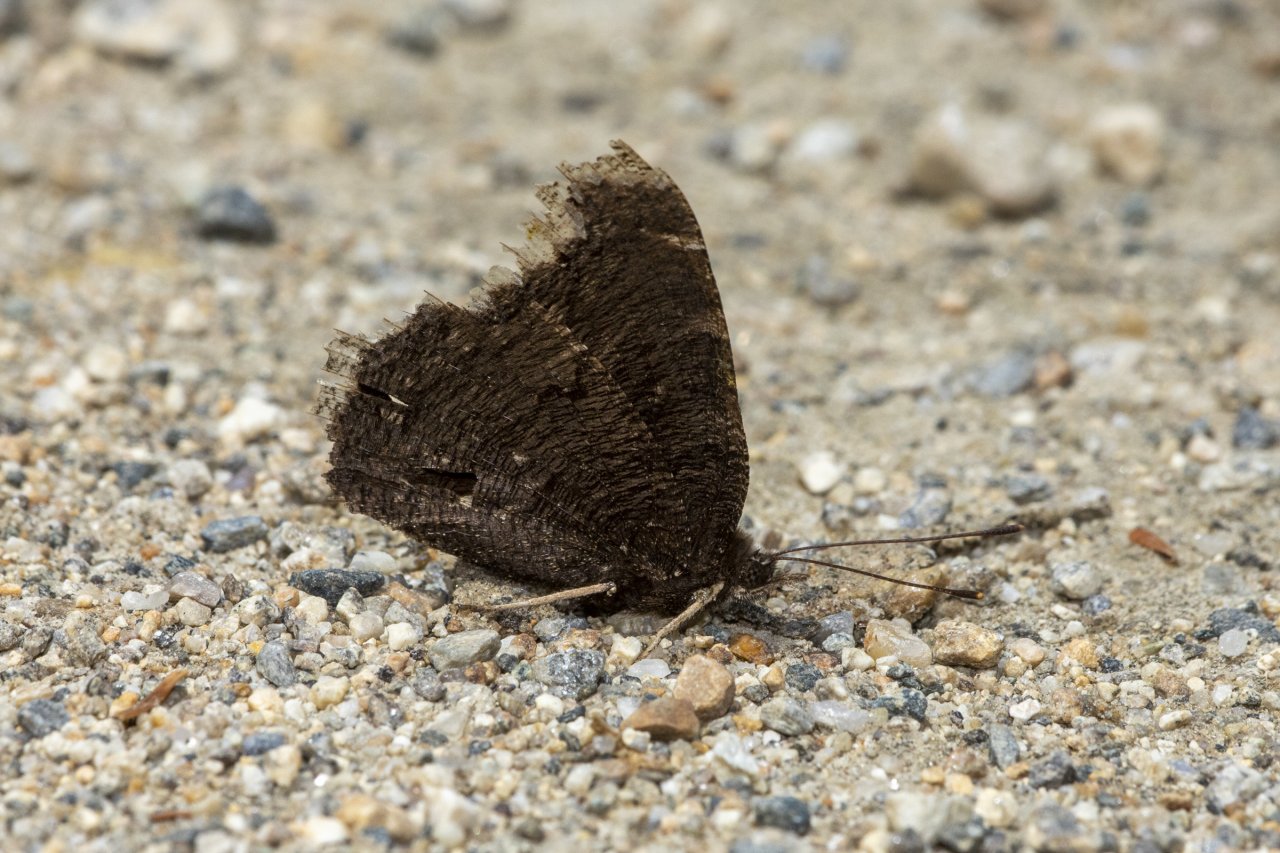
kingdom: Animalia
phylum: Arthropoda
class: Insecta
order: Lepidoptera
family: Nymphalidae
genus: Nymphalis
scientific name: Nymphalis antiopa
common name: Mourning Cloak
